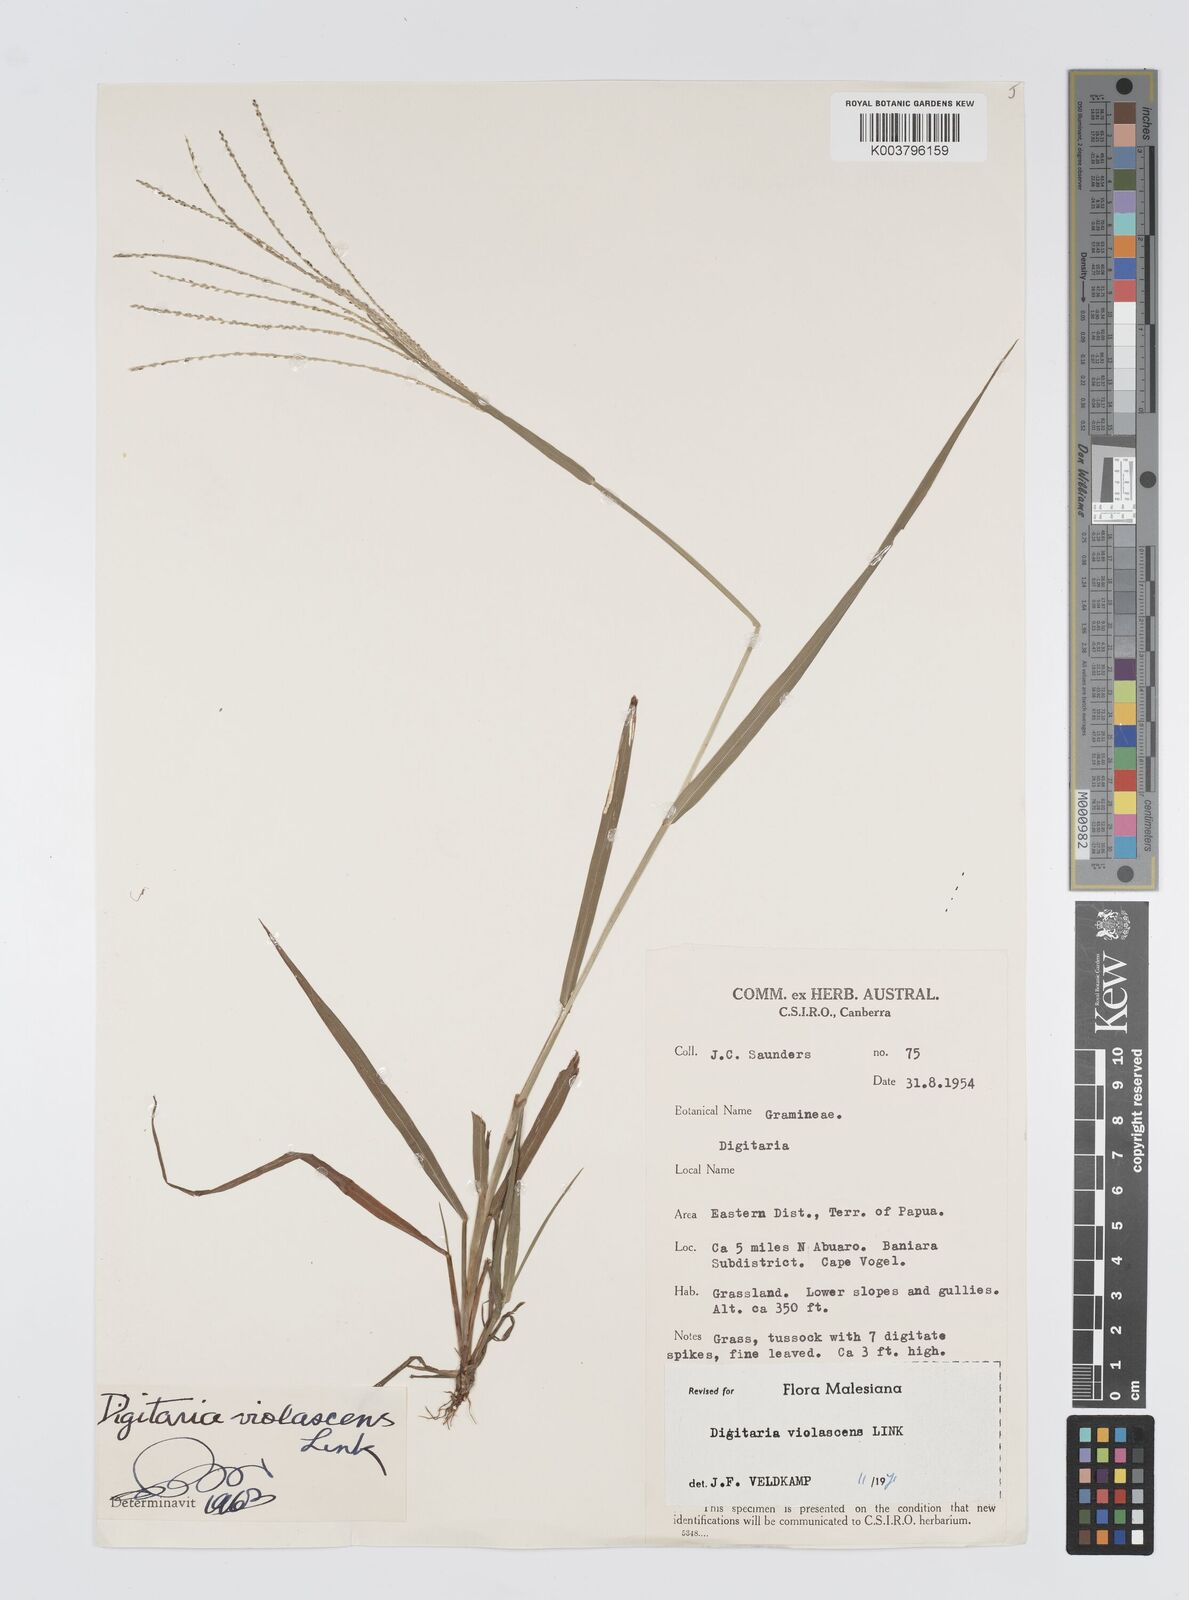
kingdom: Plantae
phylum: Tracheophyta
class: Liliopsida
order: Poales
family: Poaceae
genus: Digitaria
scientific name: Digitaria violascens
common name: Violet crabgrass
